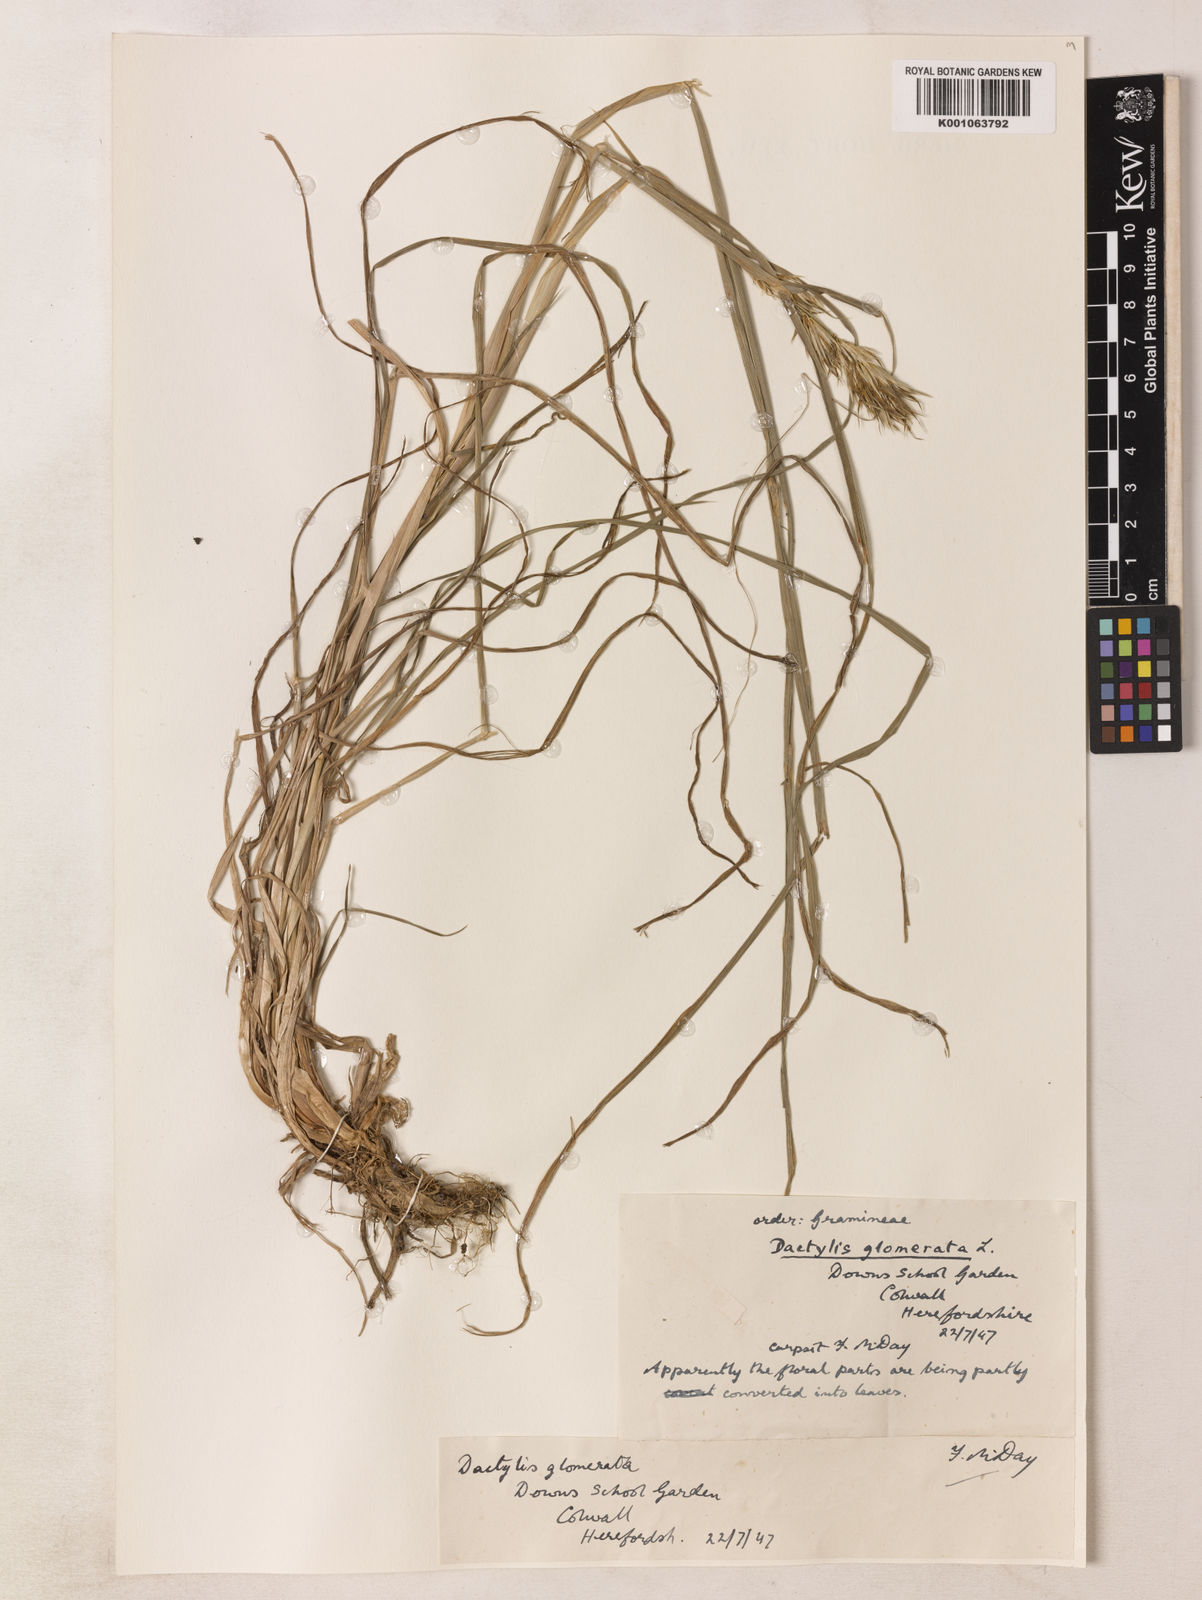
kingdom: Plantae
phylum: Tracheophyta
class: Liliopsida
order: Poales
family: Poaceae
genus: Dactylis
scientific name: Dactylis glomerata
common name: Orchardgrass
